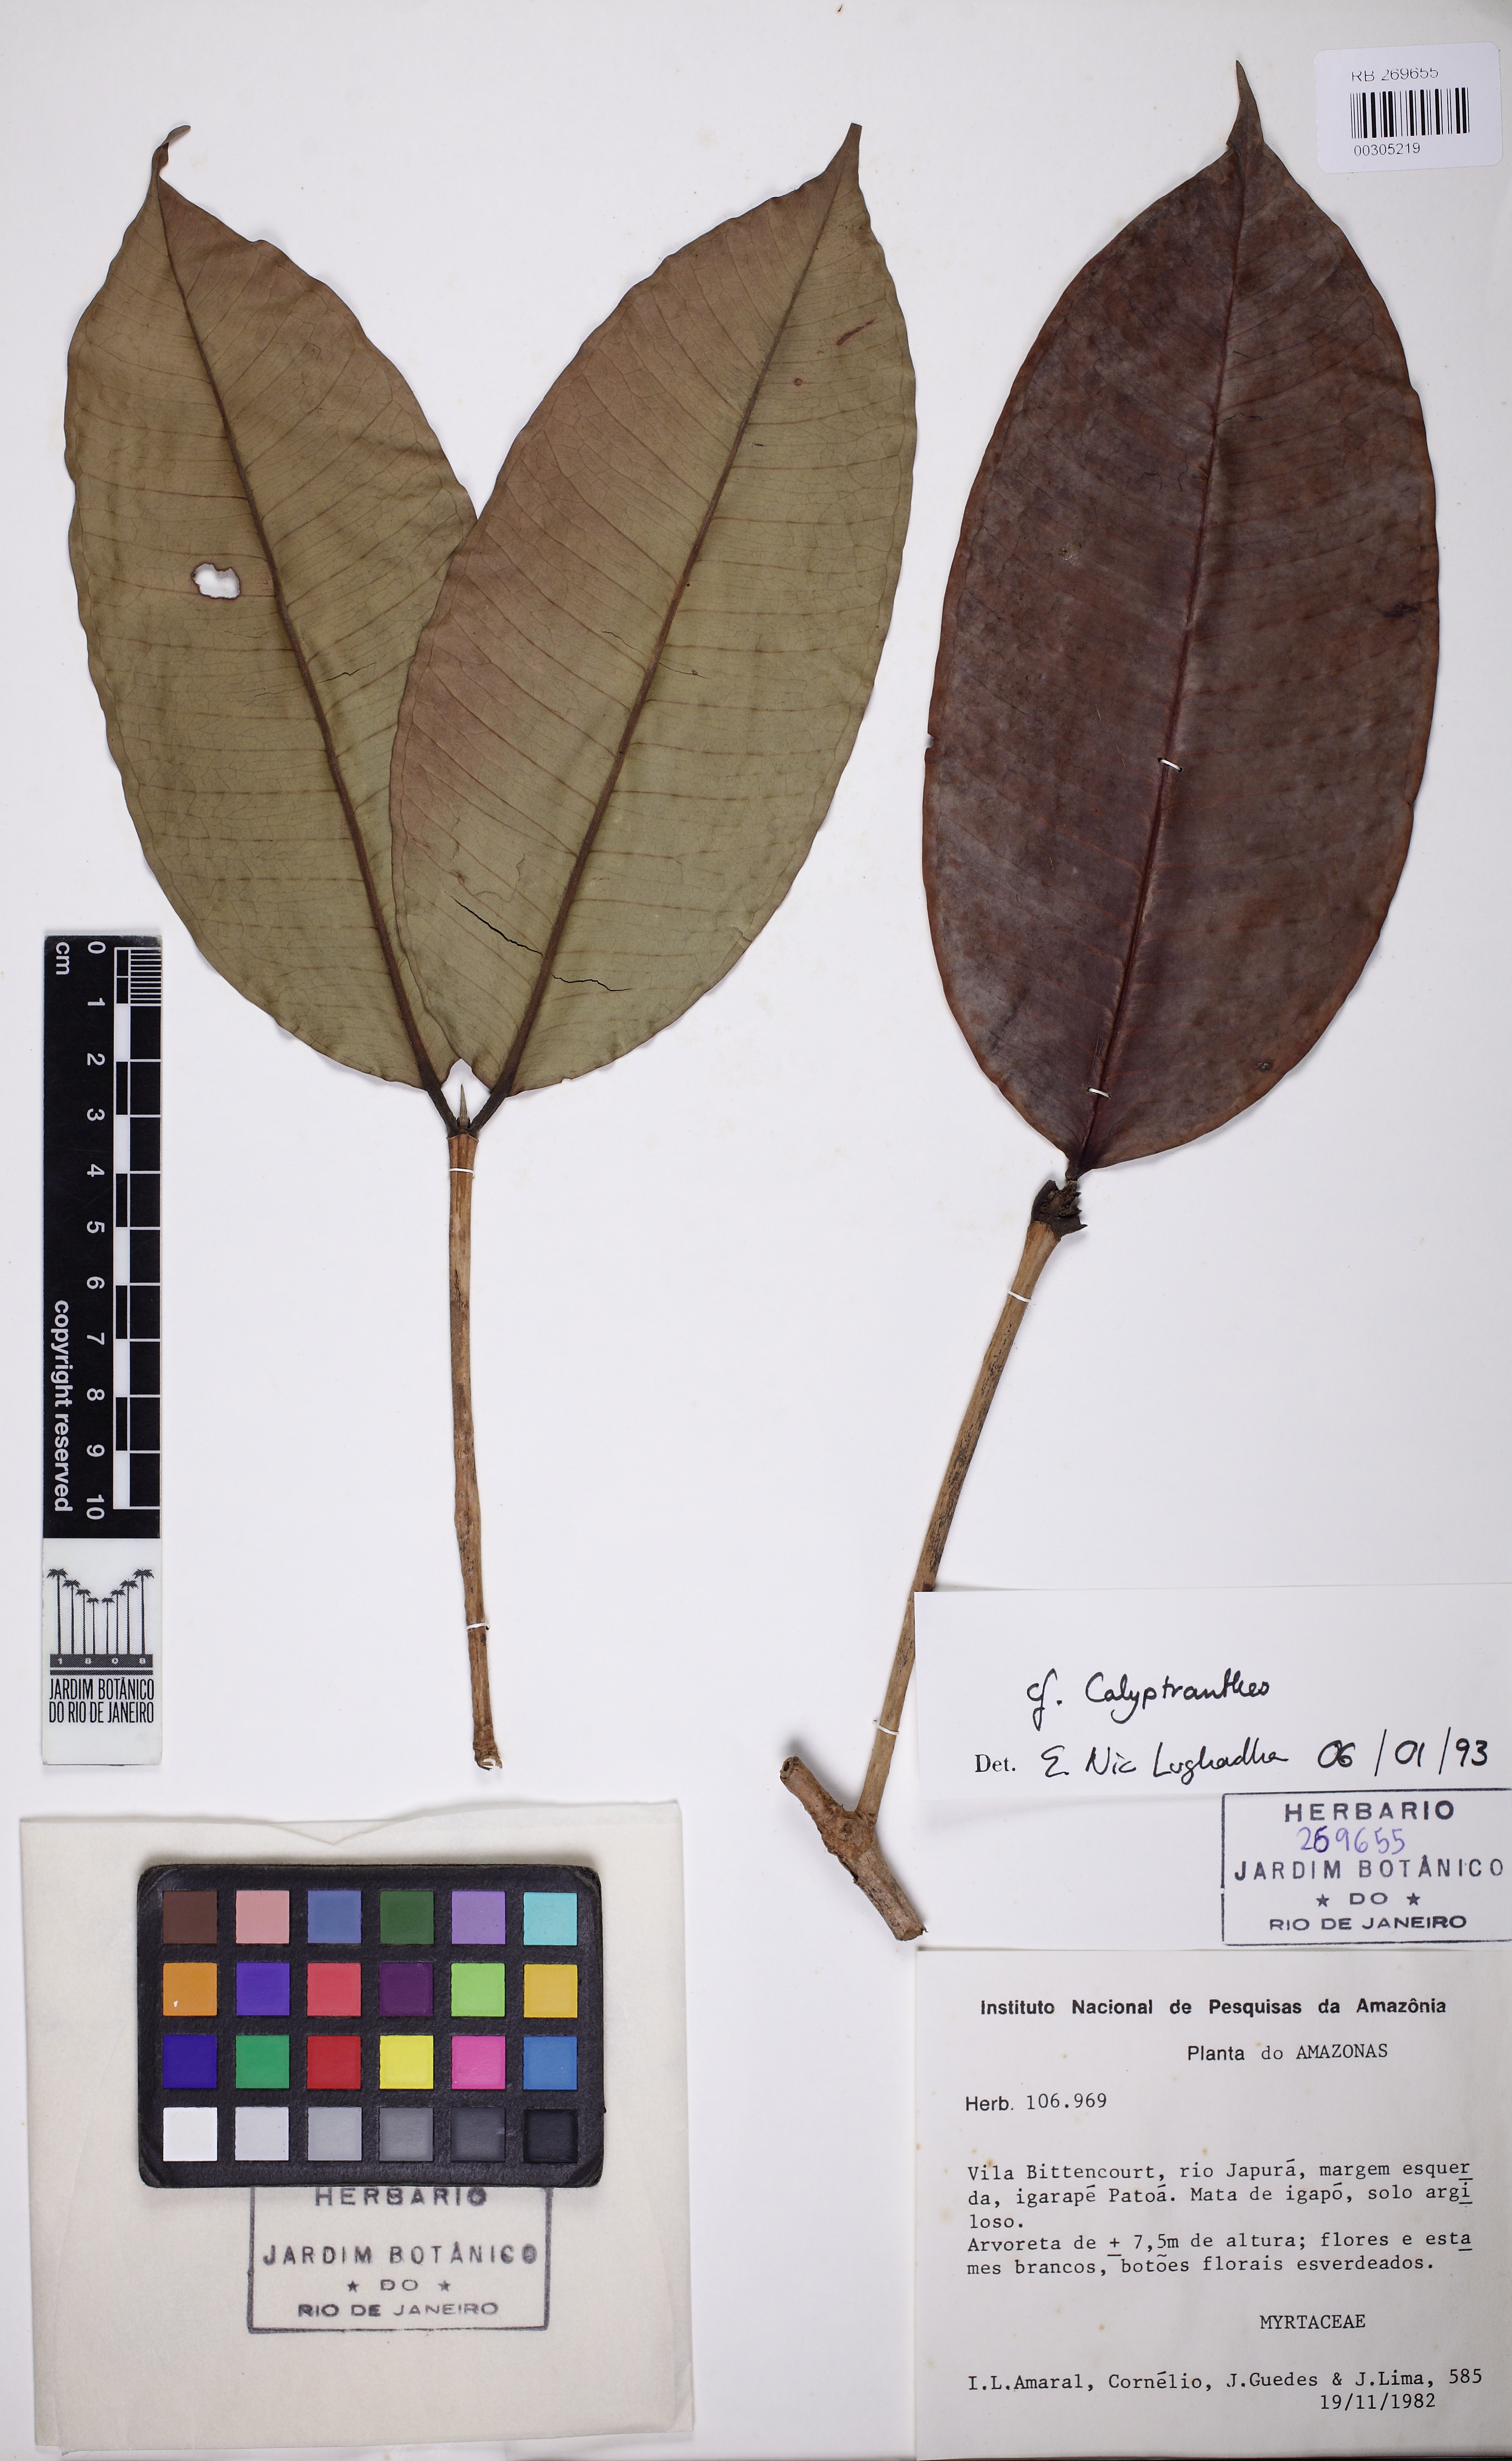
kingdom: Plantae
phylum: Tracheophyta
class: Magnoliopsida
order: Myrtales
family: Myrtaceae
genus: Myrcia
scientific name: Myrcia uaupensis
